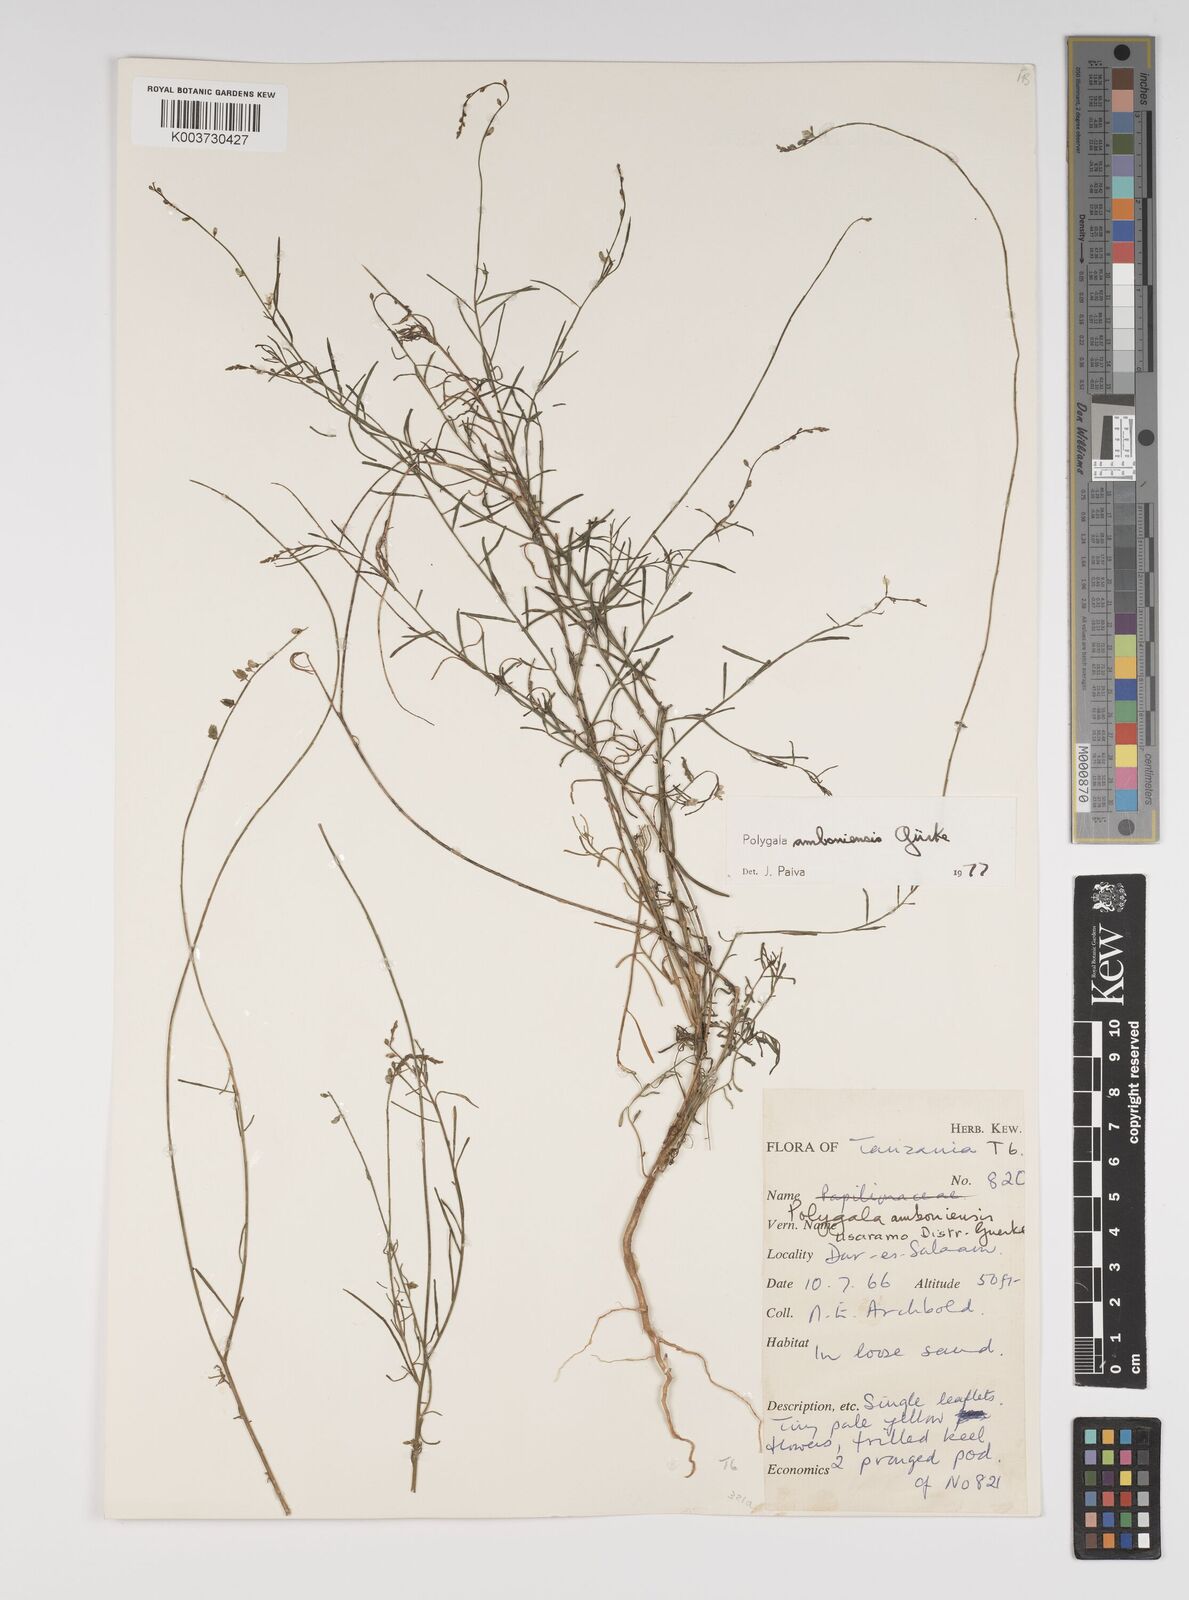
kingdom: Plantae
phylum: Tracheophyta
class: Magnoliopsida
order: Fabales
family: Polygalaceae
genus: Polygala
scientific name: Polygala amboniensis
